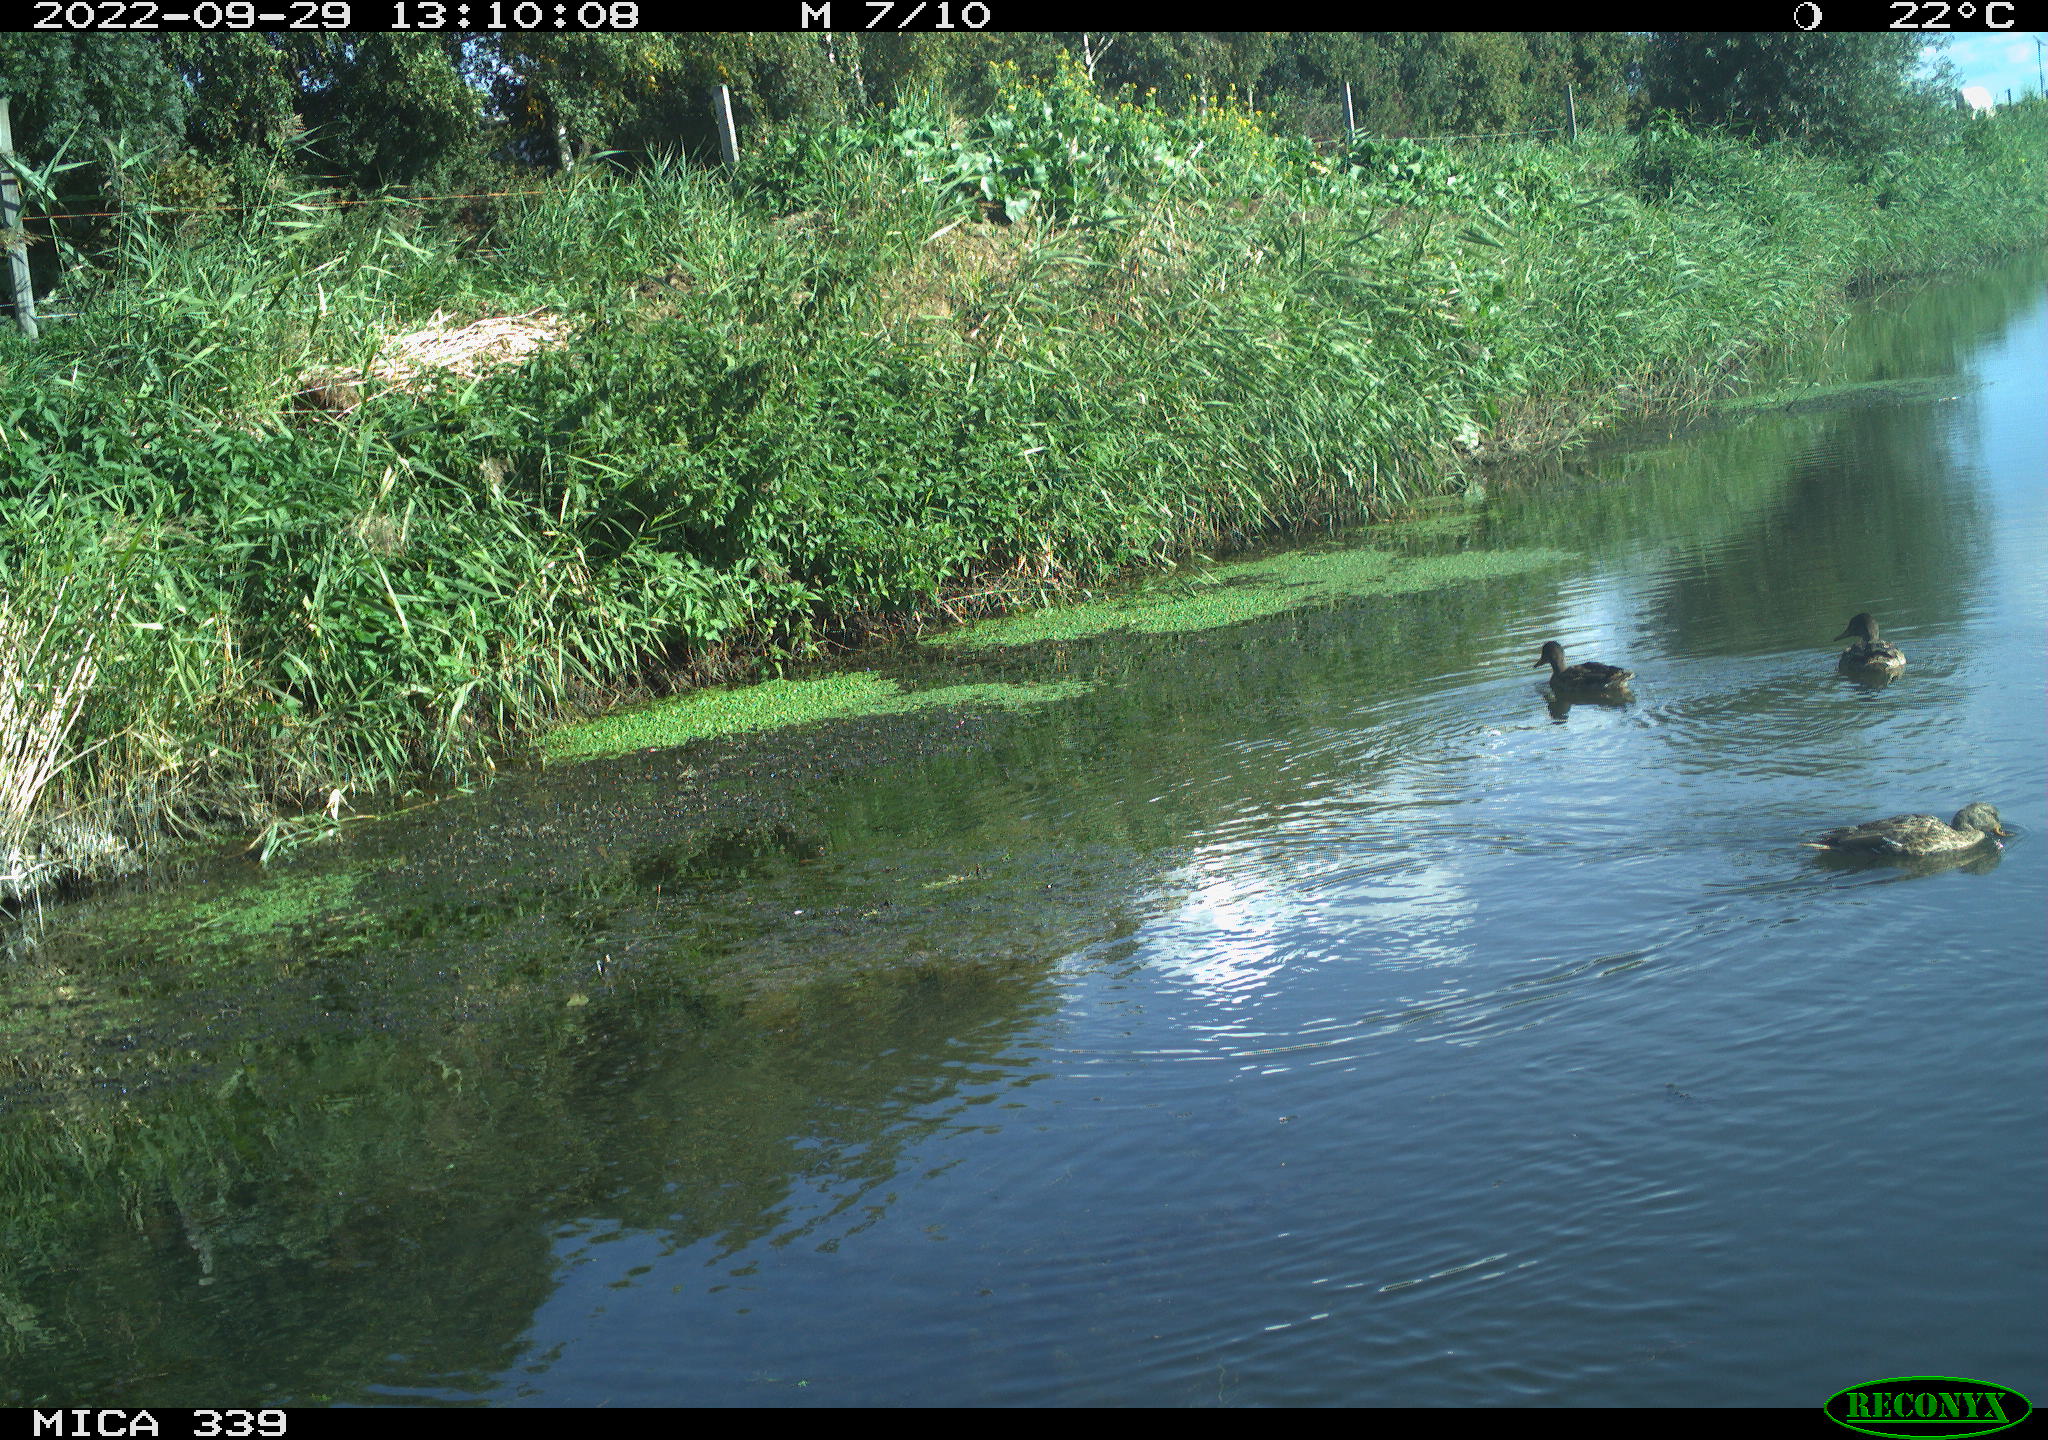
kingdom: Animalia
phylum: Chordata
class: Aves
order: Anseriformes
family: Anatidae
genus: Anas
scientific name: Anas platyrhynchos
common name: Mallard
